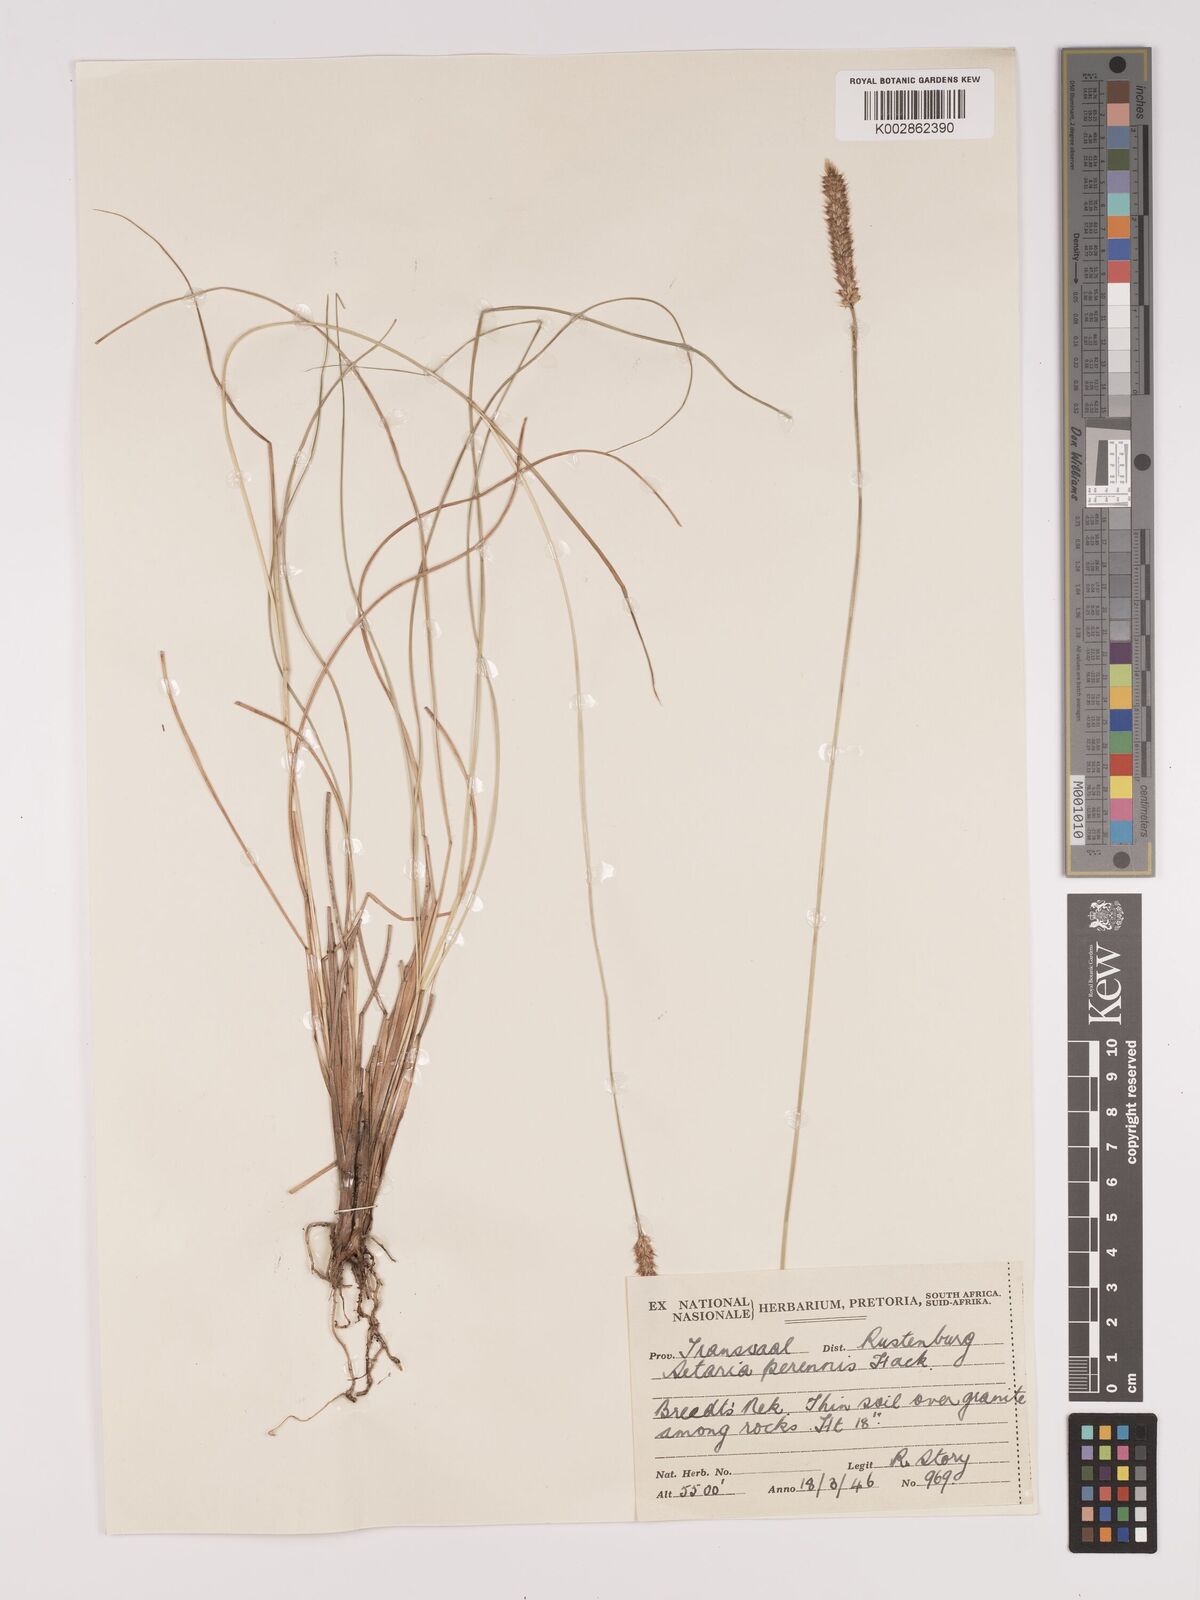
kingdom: Plantae
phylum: Tracheophyta
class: Liliopsida
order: Poales
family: Poaceae
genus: Setaria
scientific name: Setaria sphacelata
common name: African bristlegrass
